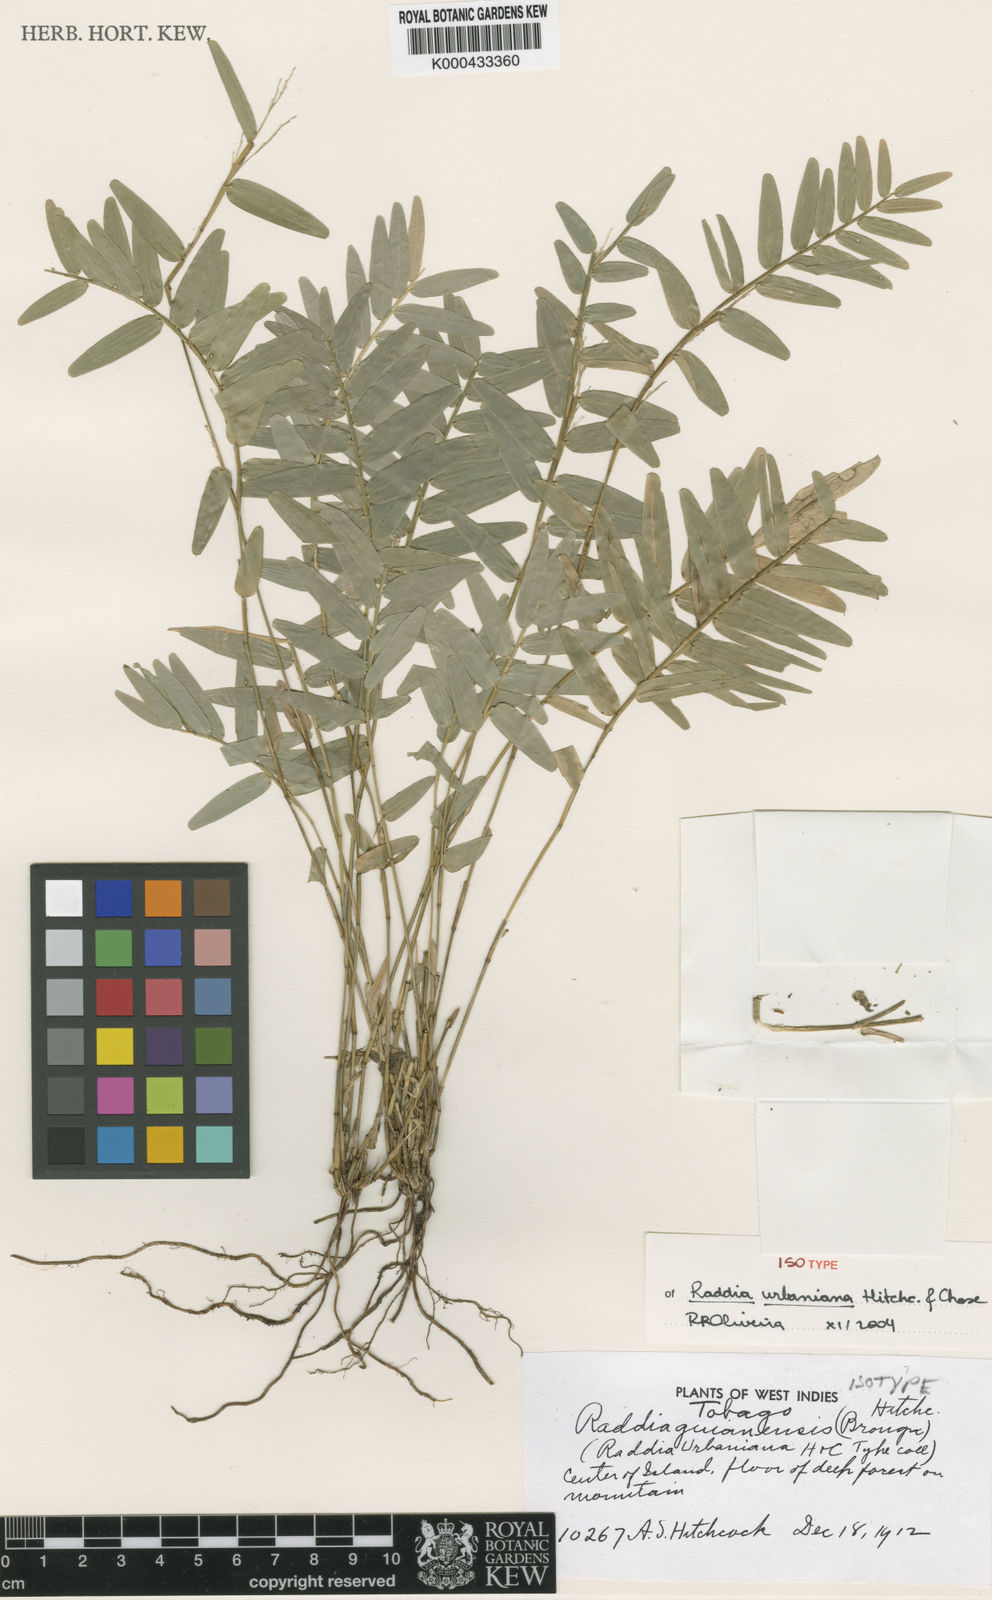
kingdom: Plantae
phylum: Tracheophyta
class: Liliopsida
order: Poales
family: Poaceae
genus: Raddia
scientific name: Raddia guianensis
